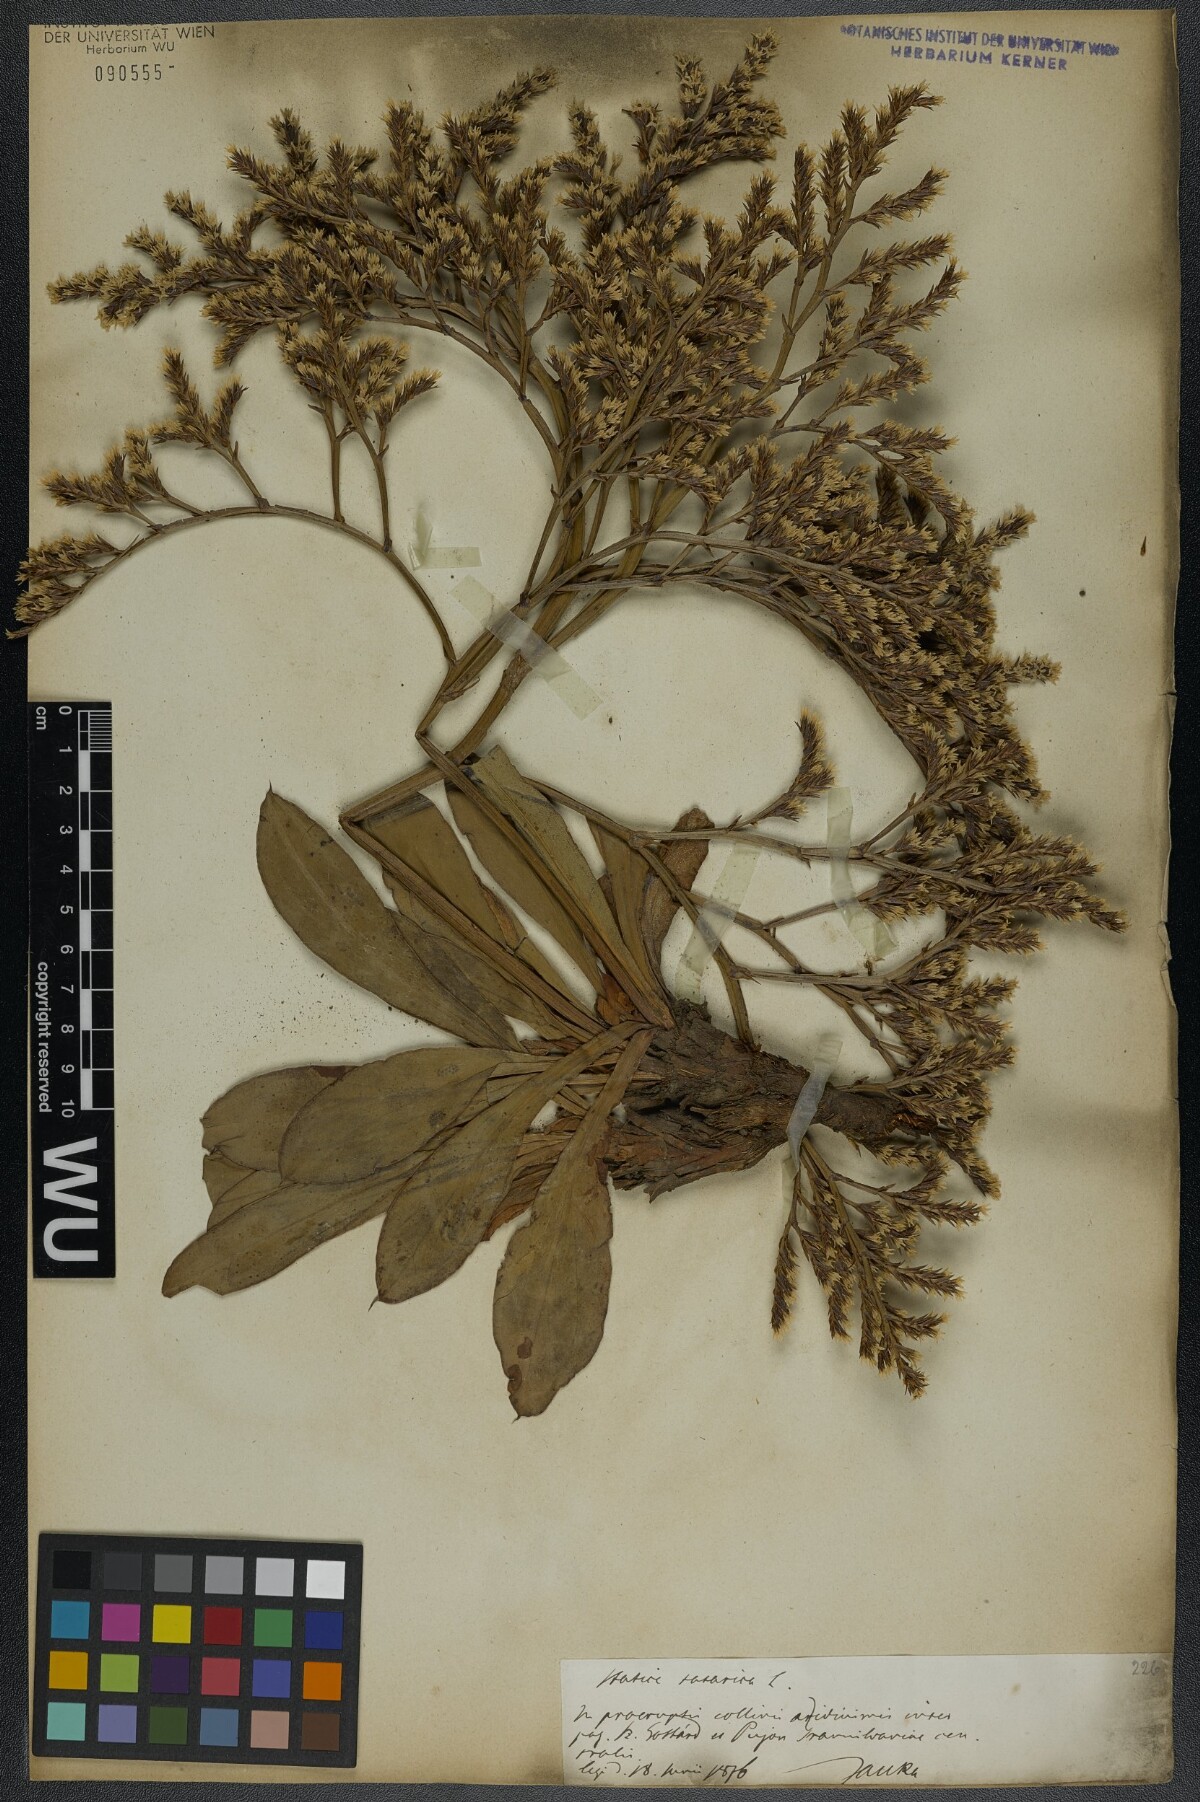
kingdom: Plantae
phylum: Tracheophyta
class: Magnoliopsida
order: Caryophyllales
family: Plumbaginaceae
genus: Goniolimon
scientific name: Goniolimon tataricum
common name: Statice
